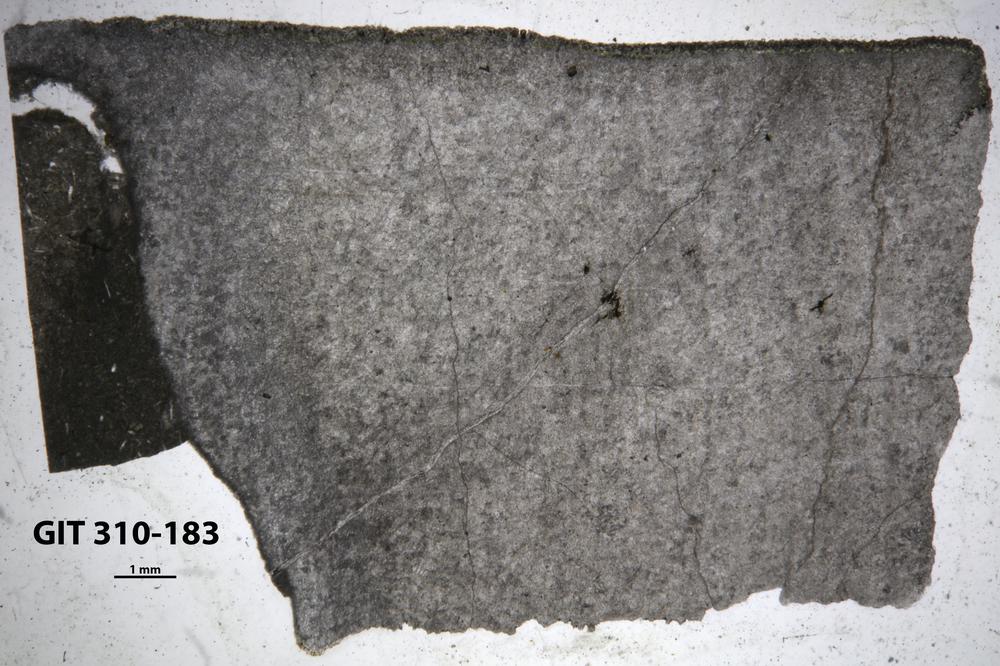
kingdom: Animalia
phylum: Porifera
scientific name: Porifera
